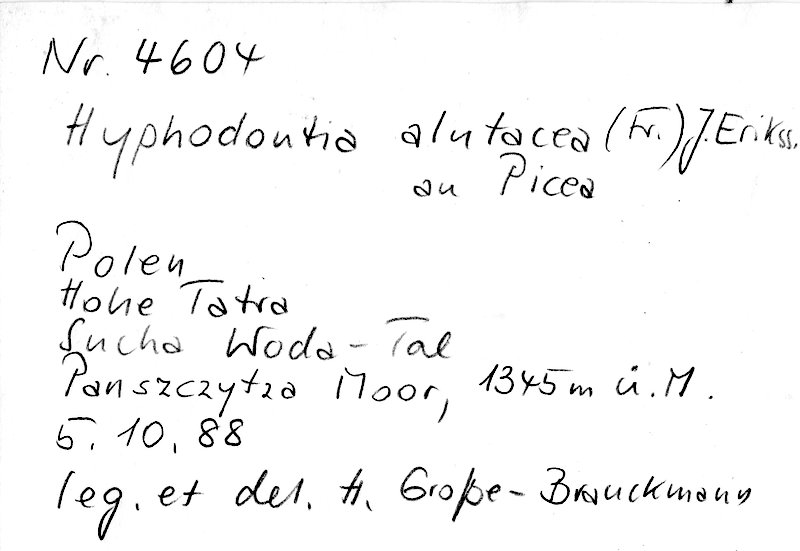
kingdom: Plantae
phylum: Tracheophyta
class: Pinopsida
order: Pinales
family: Pinaceae
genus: Picea
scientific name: Picea
